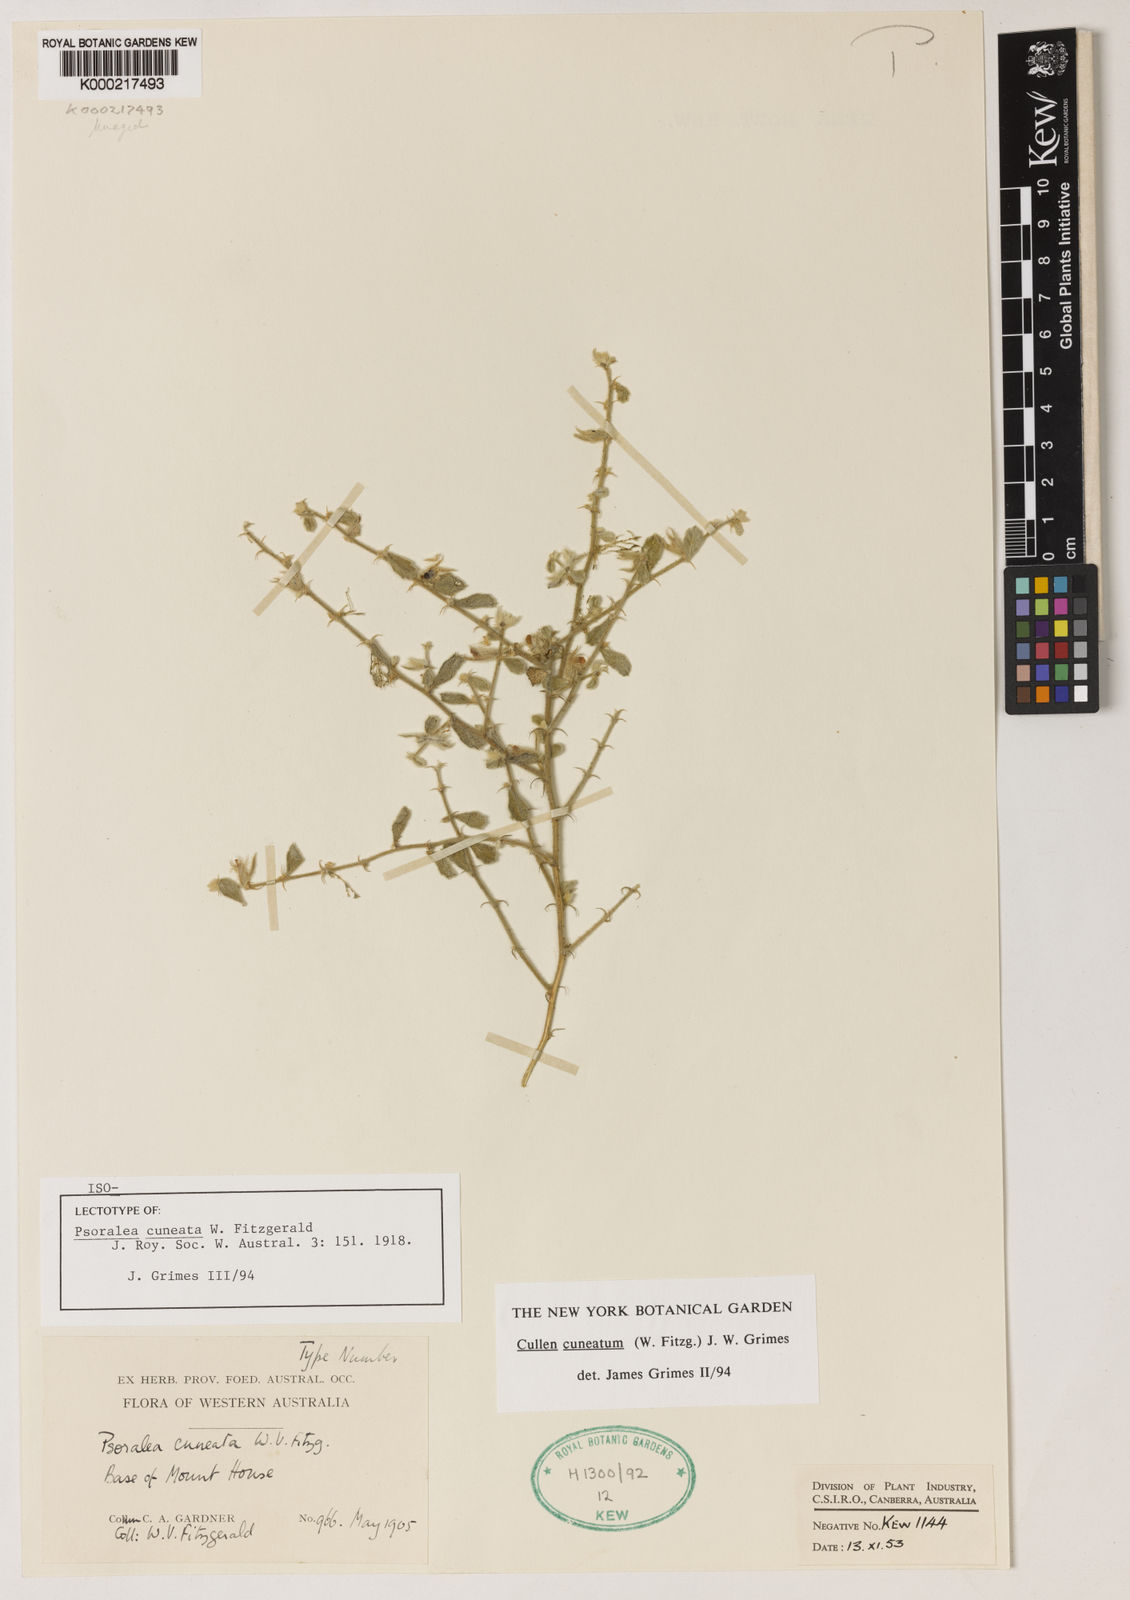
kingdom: Plantae
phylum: Tracheophyta
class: Magnoliopsida
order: Fabales
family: Fabaceae
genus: Cullen
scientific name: Cullen cuneatum
